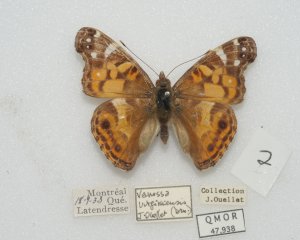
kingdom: Animalia
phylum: Arthropoda
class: Insecta
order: Lepidoptera
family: Nymphalidae
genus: Vanessa
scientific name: Vanessa virginiensis
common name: American Lady
